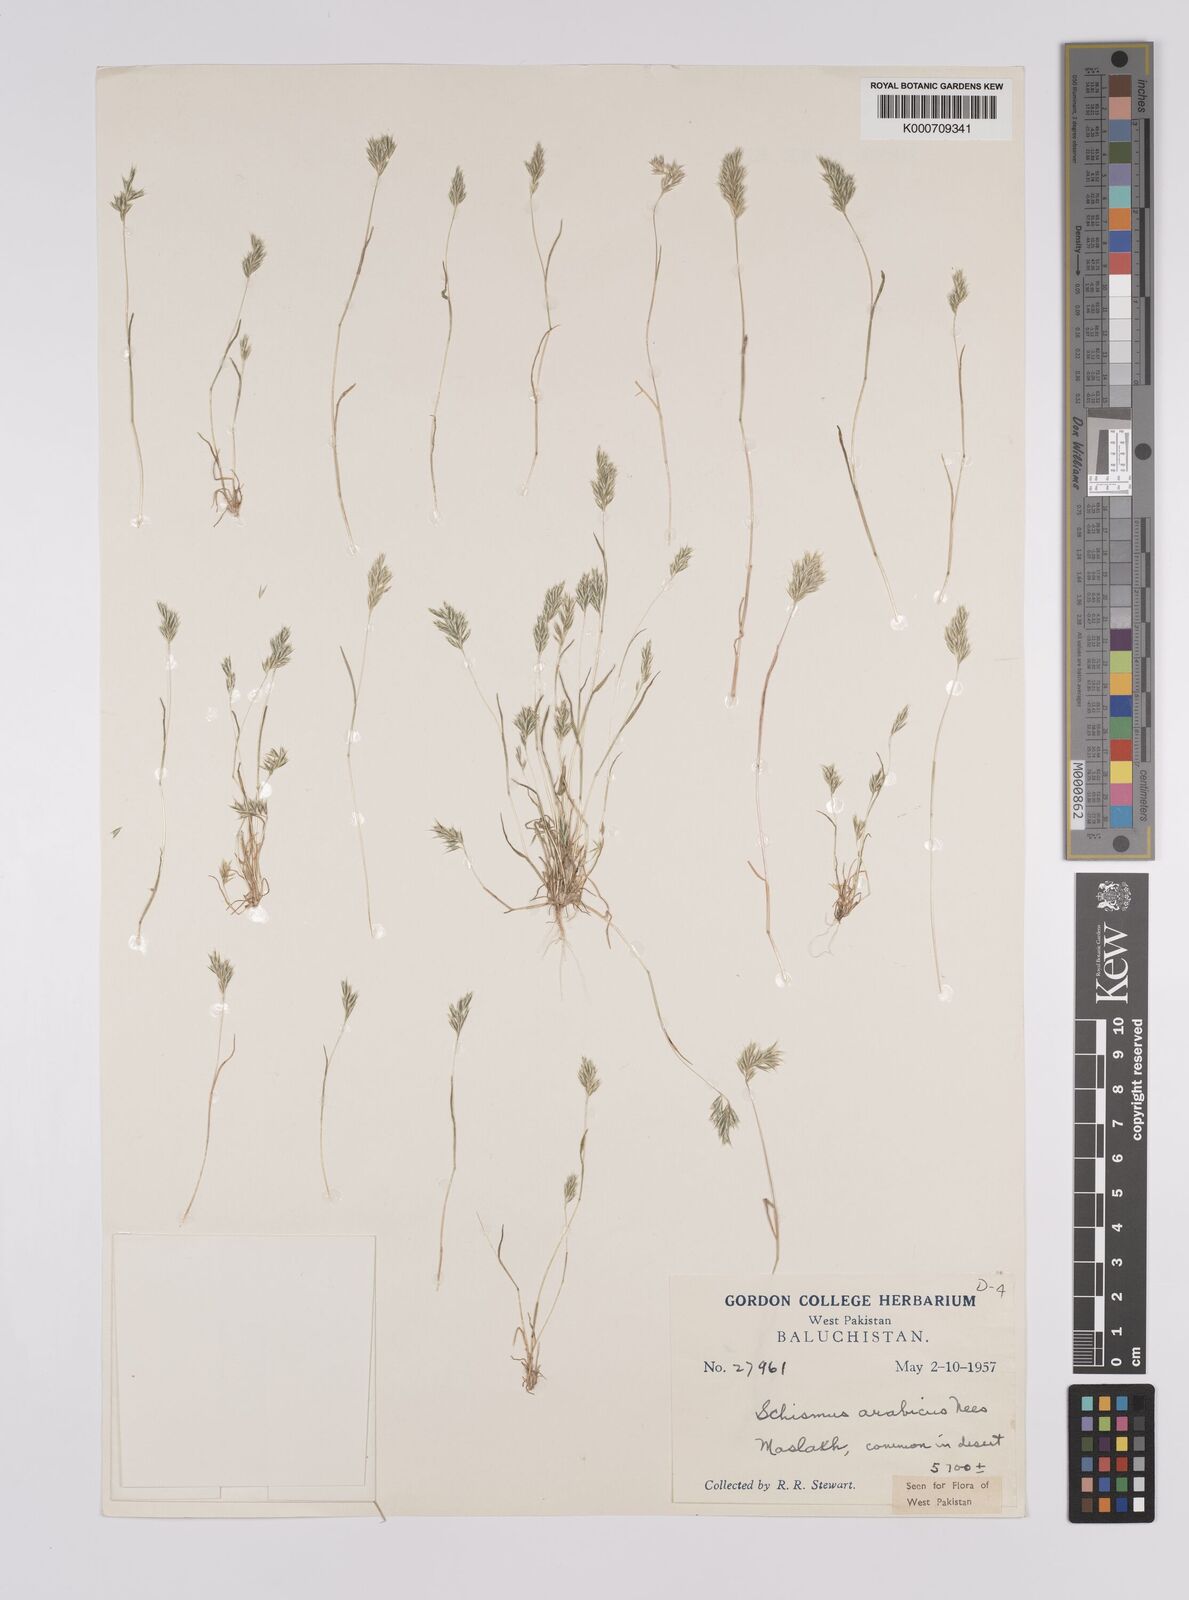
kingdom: Plantae
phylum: Tracheophyta
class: Liliopsida
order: Poales
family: Poaceae
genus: Schismus
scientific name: Schismus arabicus
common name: Arabian schismus
